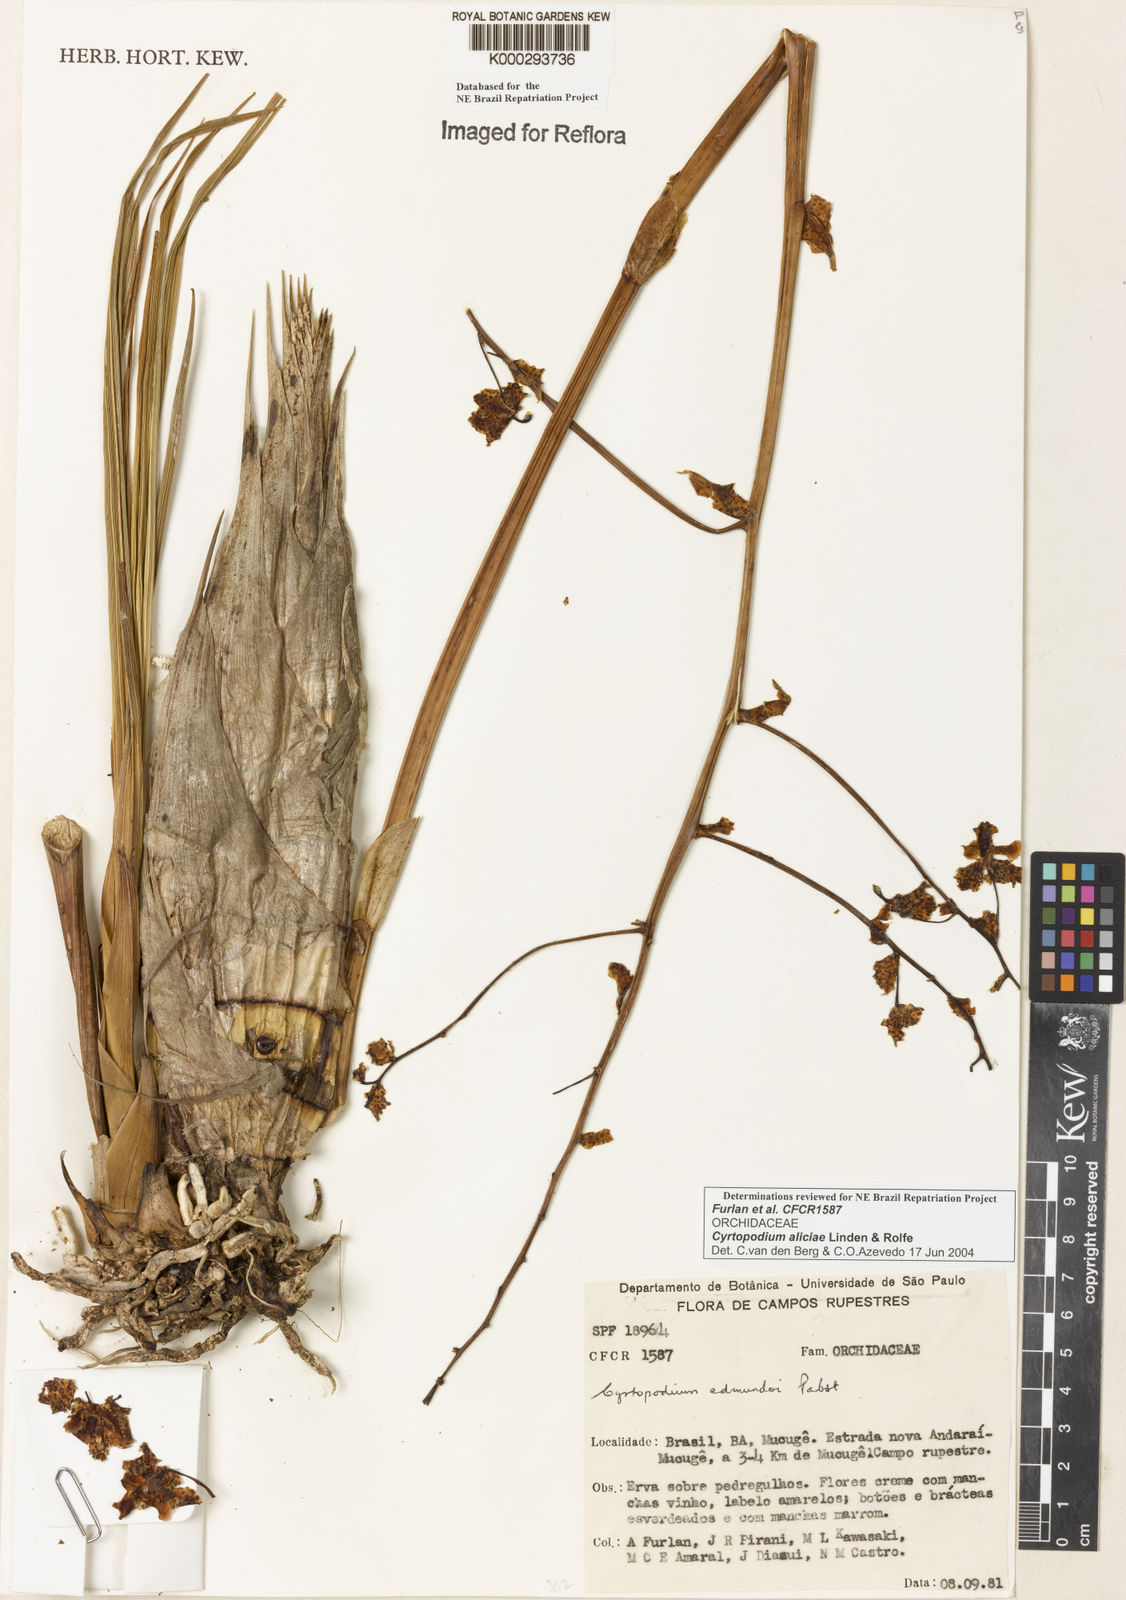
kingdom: Plantae
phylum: Tracheophyta
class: Liliopsida
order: Asparagales
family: Orchidaceae
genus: Cyrtopodium
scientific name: Cyrtopodium aliciae
